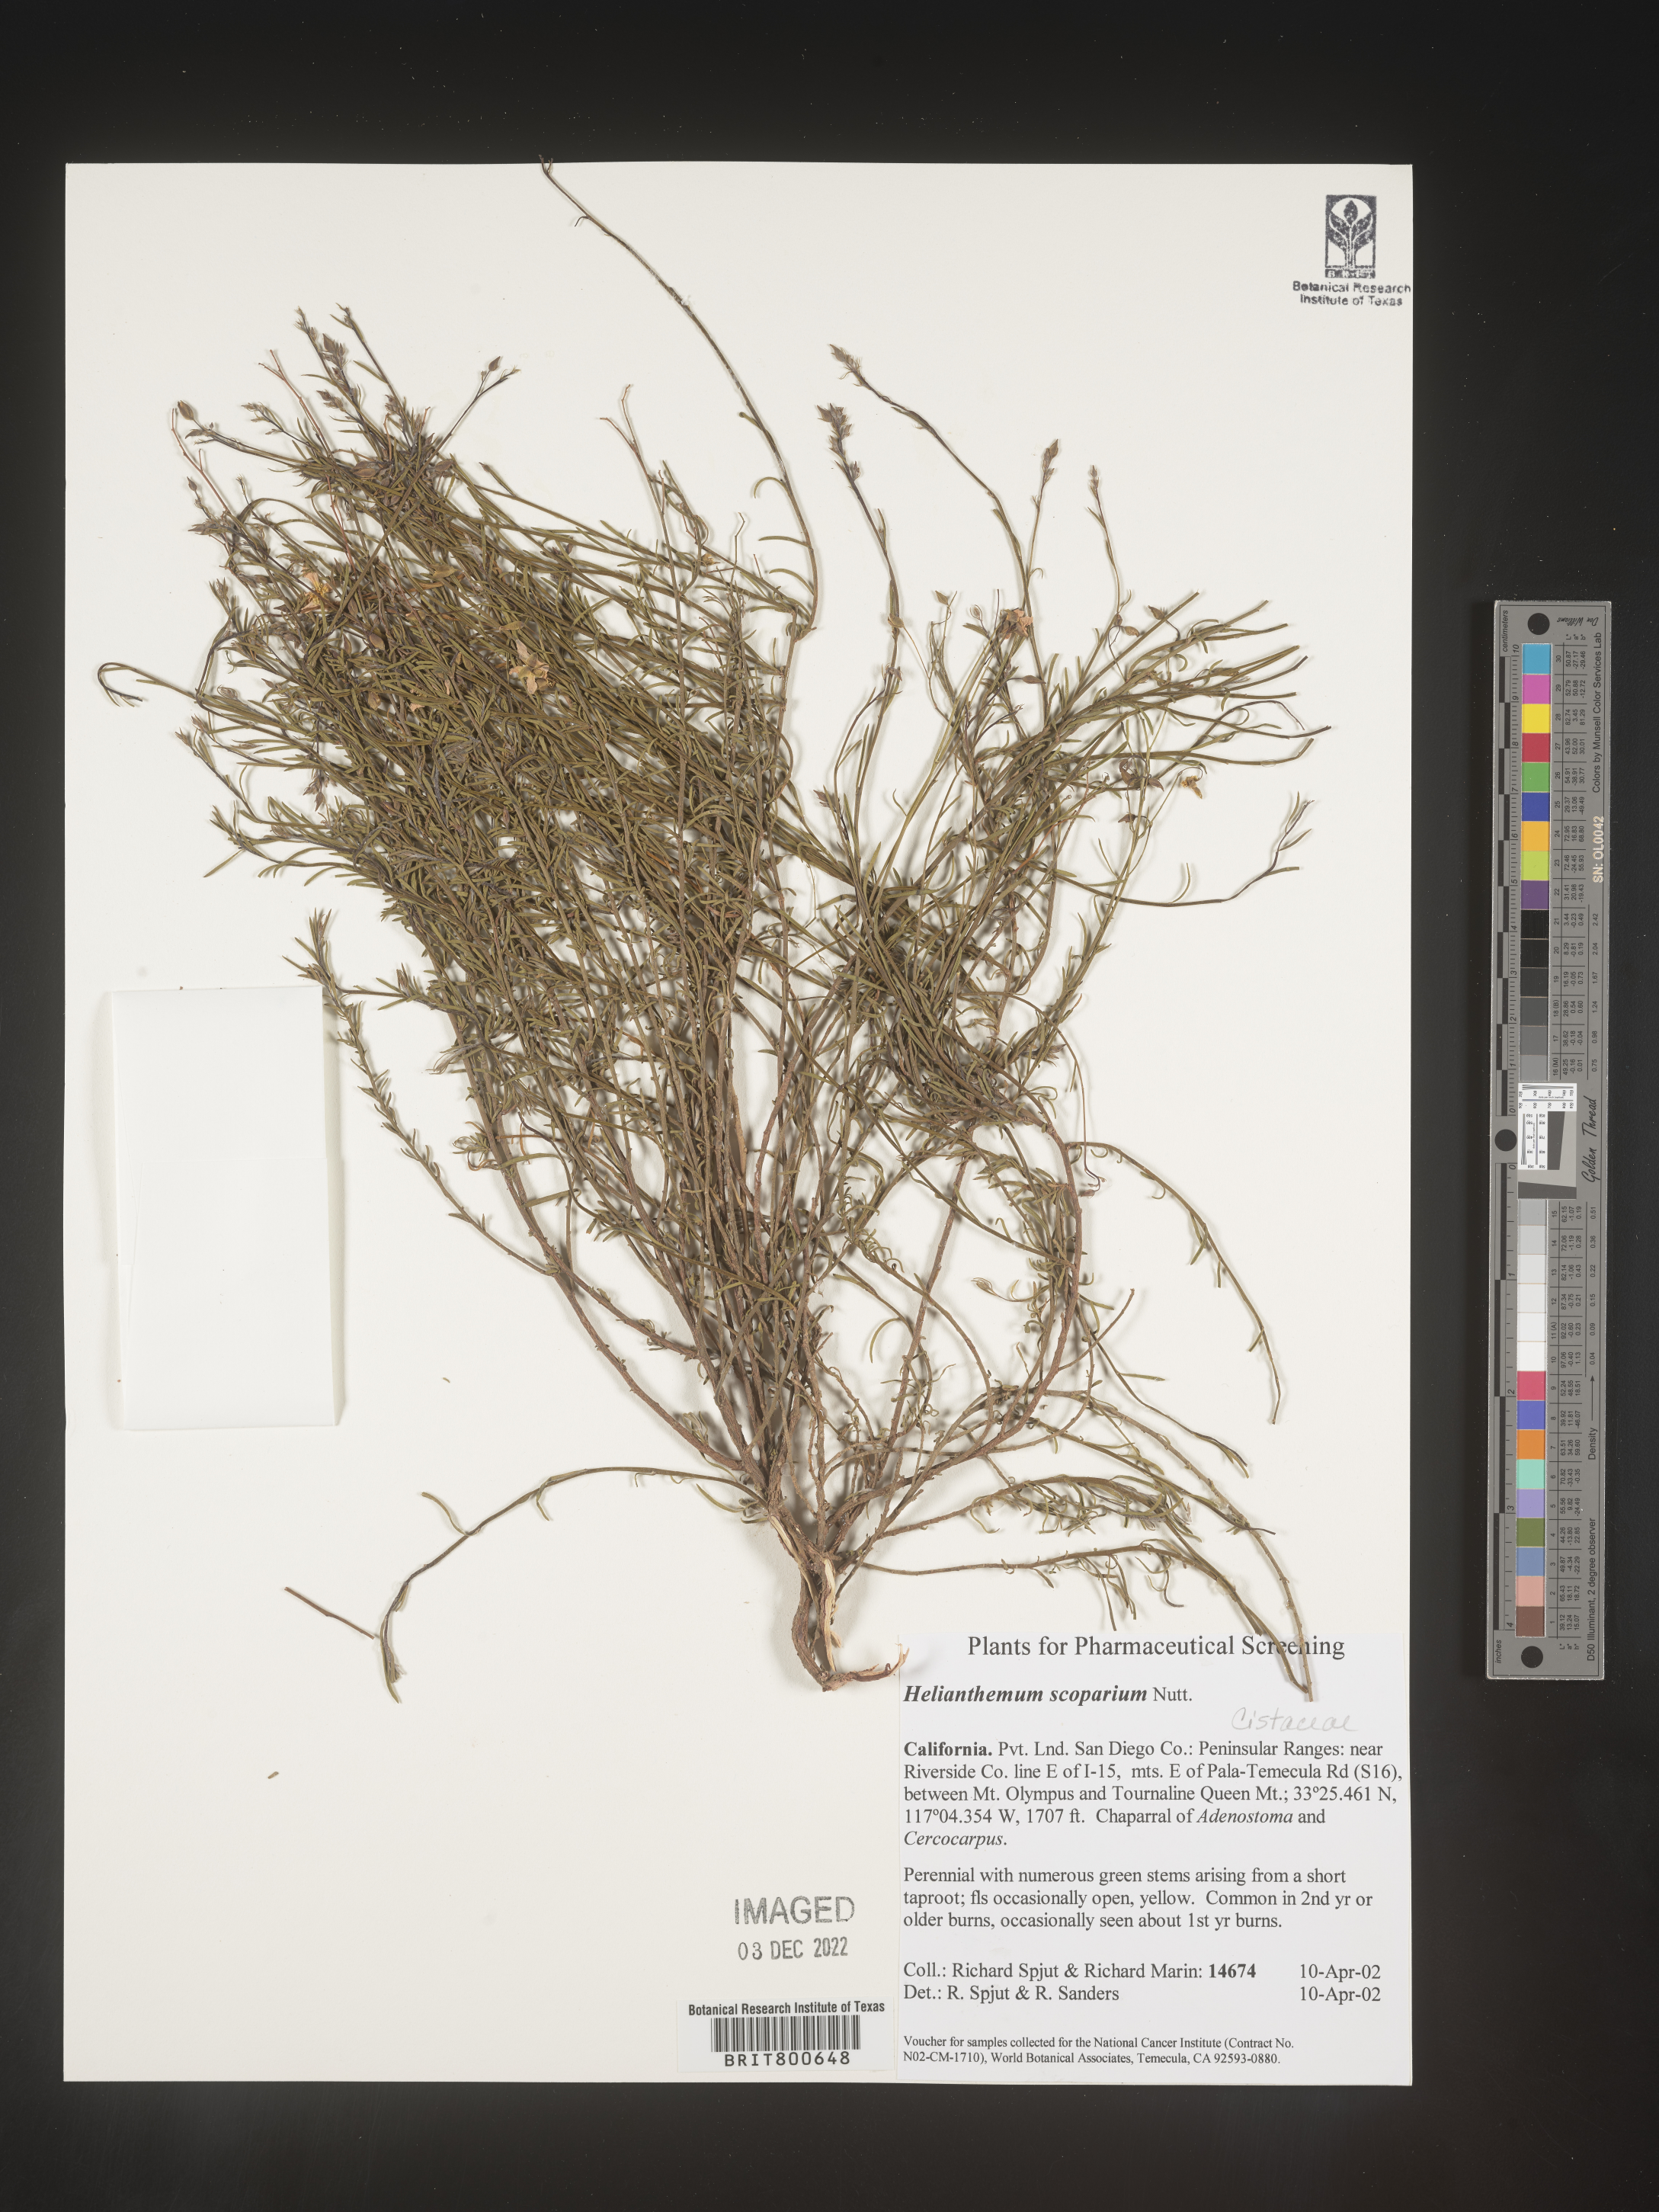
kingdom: Plantae
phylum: Tracheophyta
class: Magnoliopsida
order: Malvales
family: Cistaceae
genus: Helianthemum
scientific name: Helianthemum
